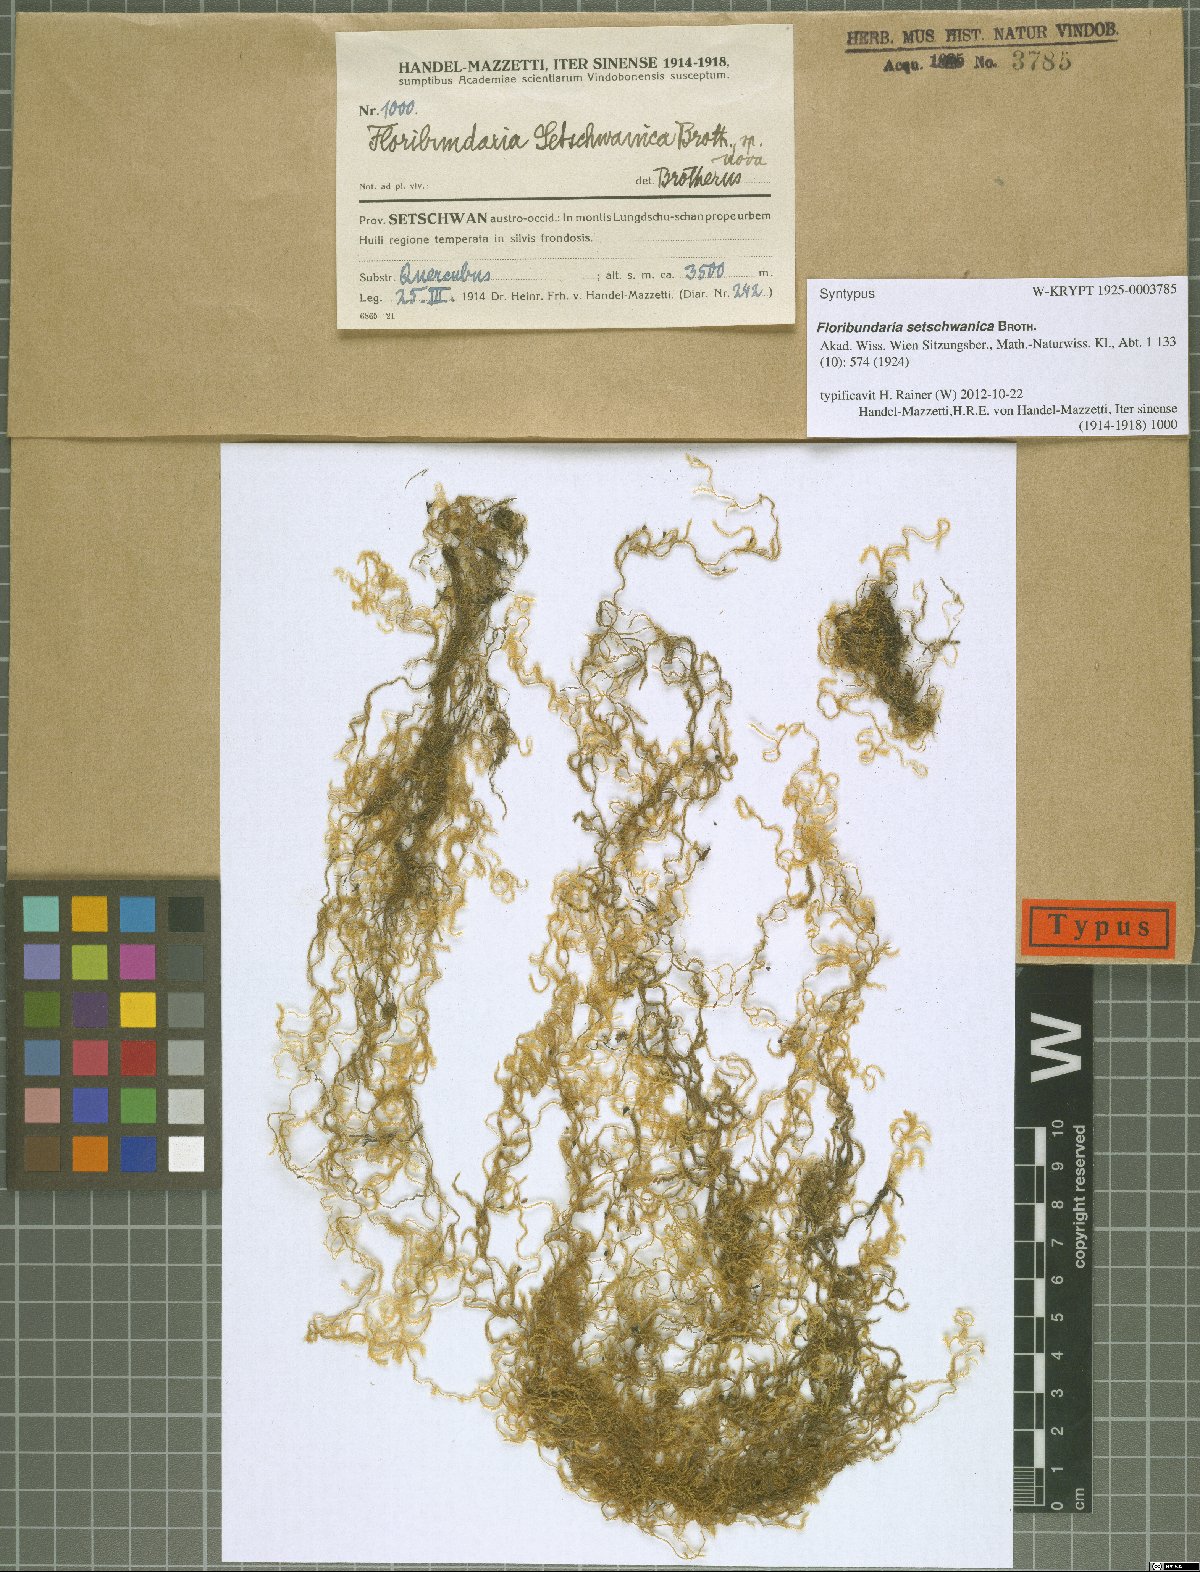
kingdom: Plantae
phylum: Bryophyta
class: Bryopsida
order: Hypnales
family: Meteoriaceae
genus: Floribundaria
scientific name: Floribundaria setschwanica
